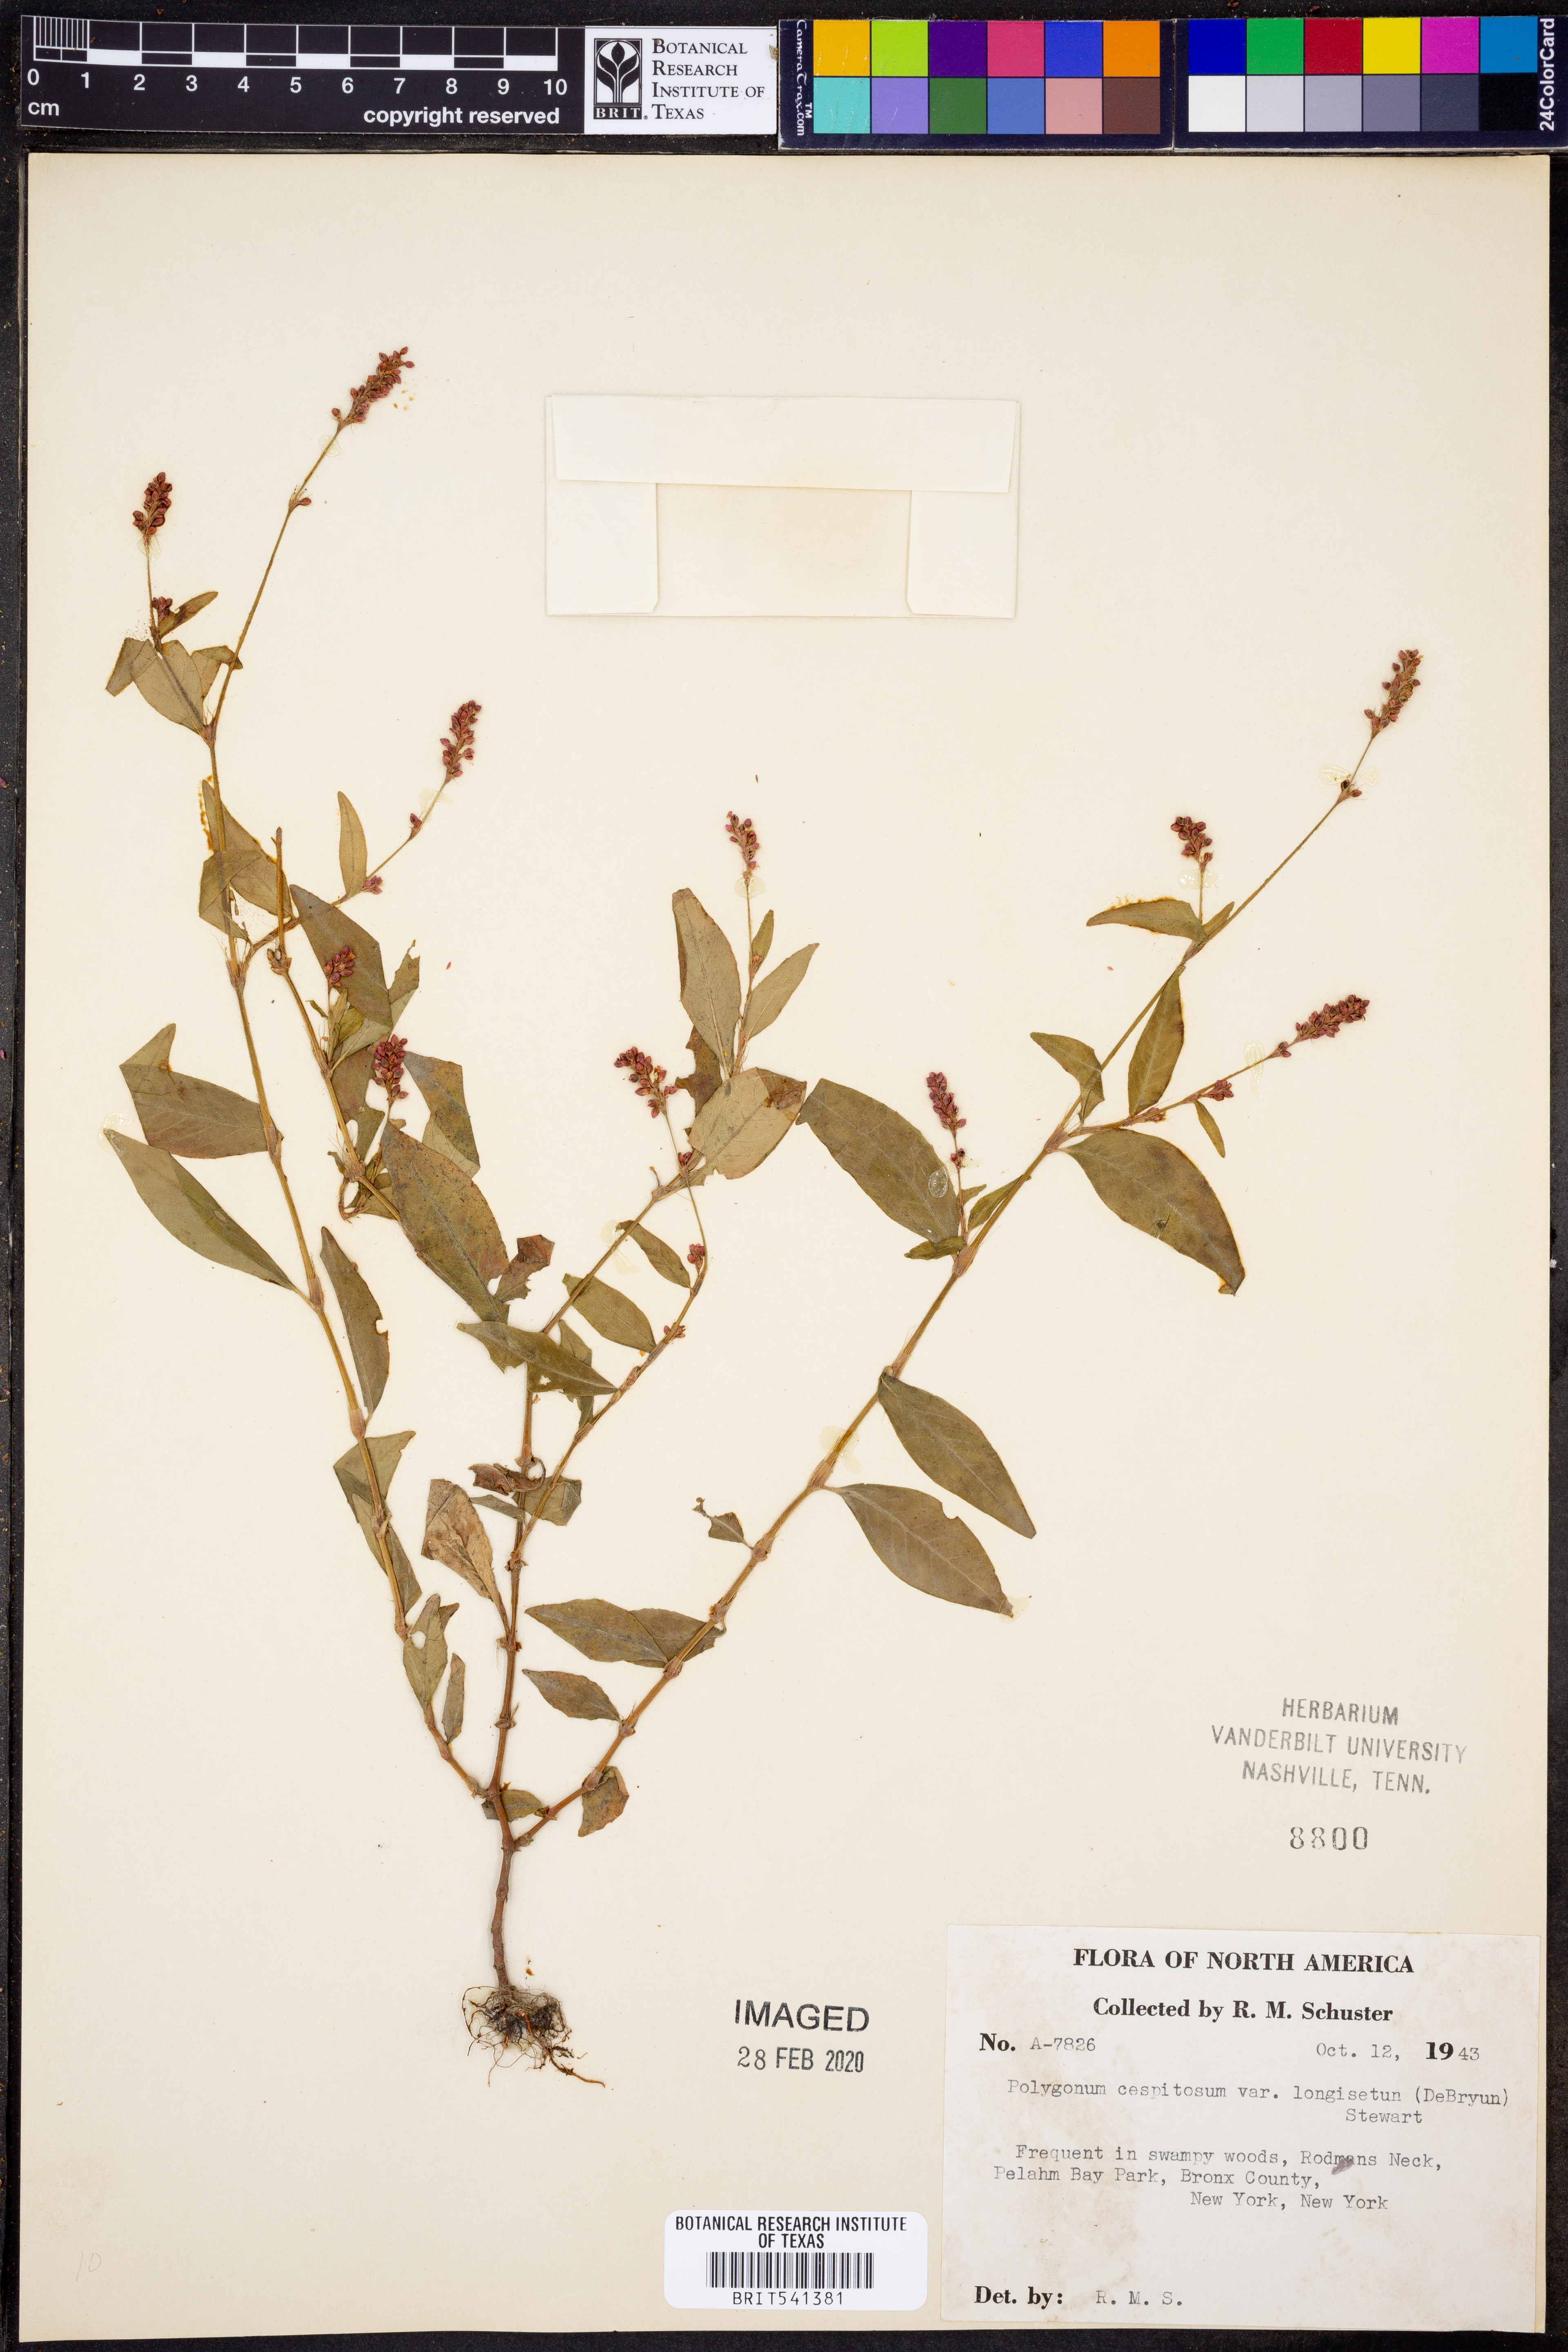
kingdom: Plantae
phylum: Tracheophyta
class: Magnoliopsida
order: Caryophyllales
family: Polygonaceae
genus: Persicaria
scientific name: Persicaria longiseta
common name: Bristly lady's-thumb
